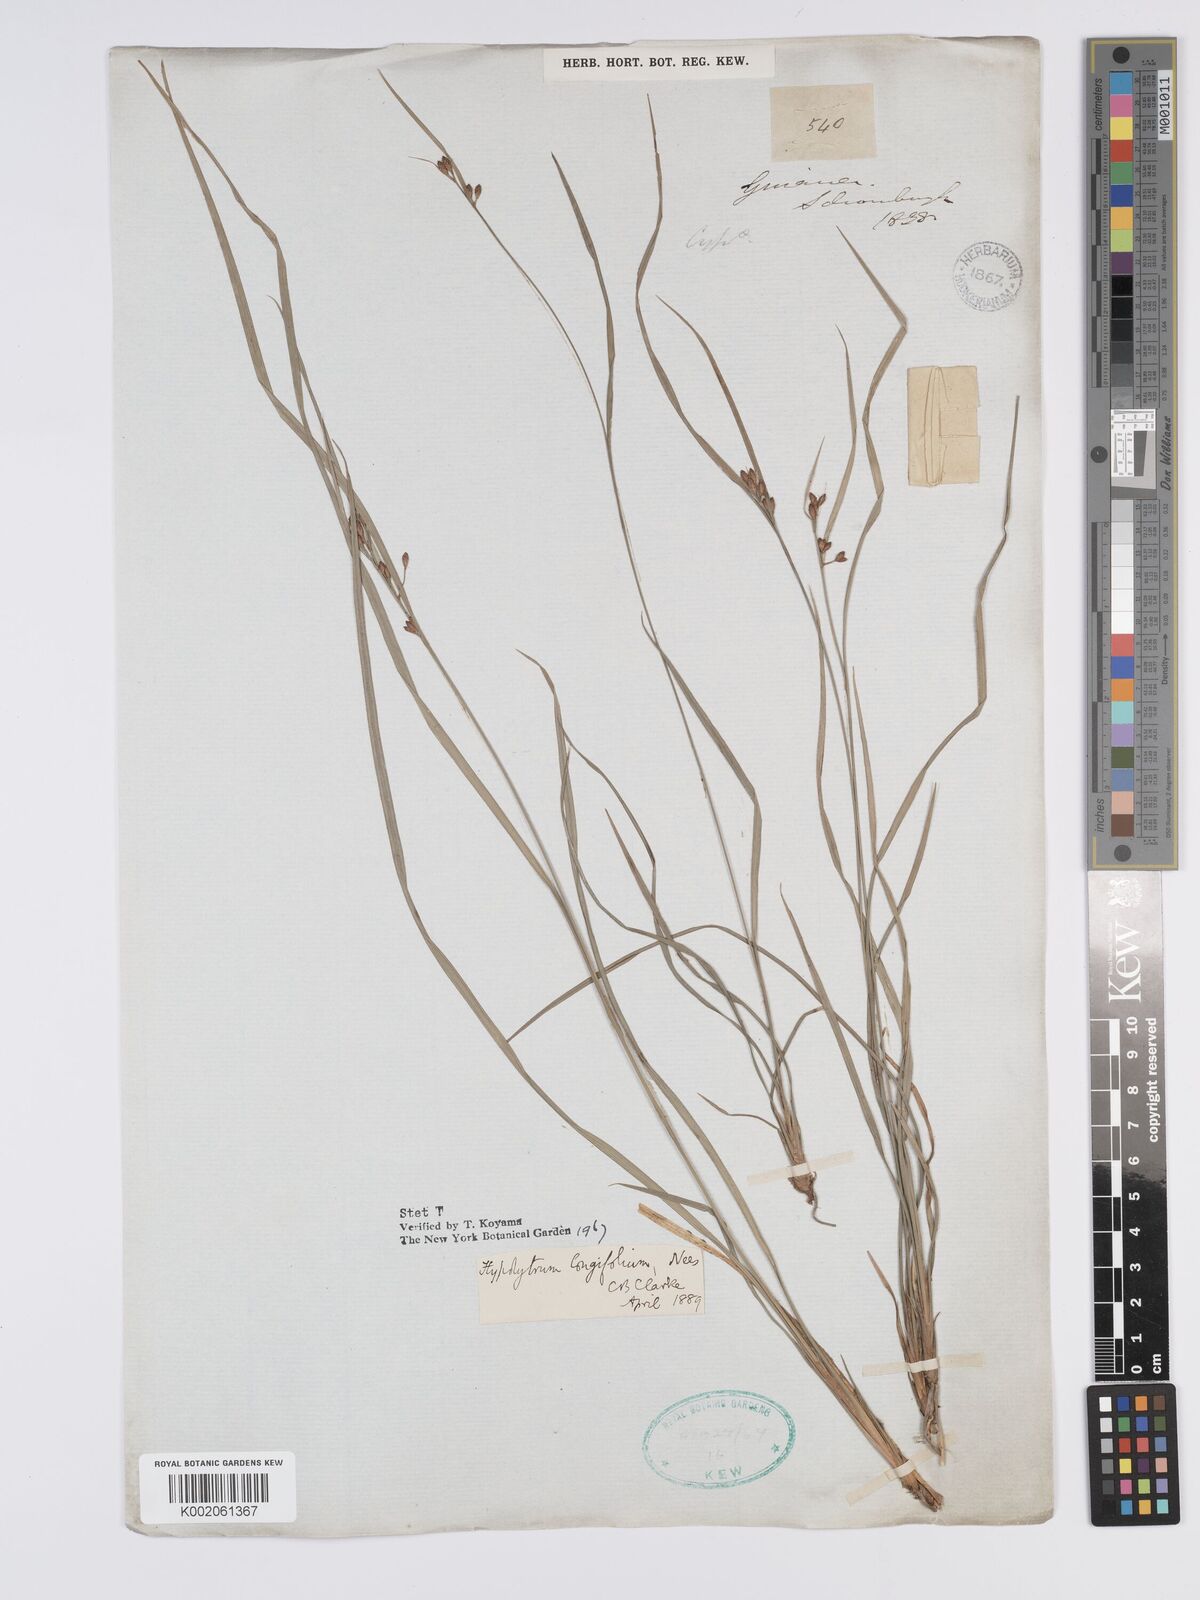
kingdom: Plantae
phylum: Tracheophyta
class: Liliopsida
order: Poales
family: Cyperaceae
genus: Hypolytrum
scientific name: Hypolytrum longifolium
